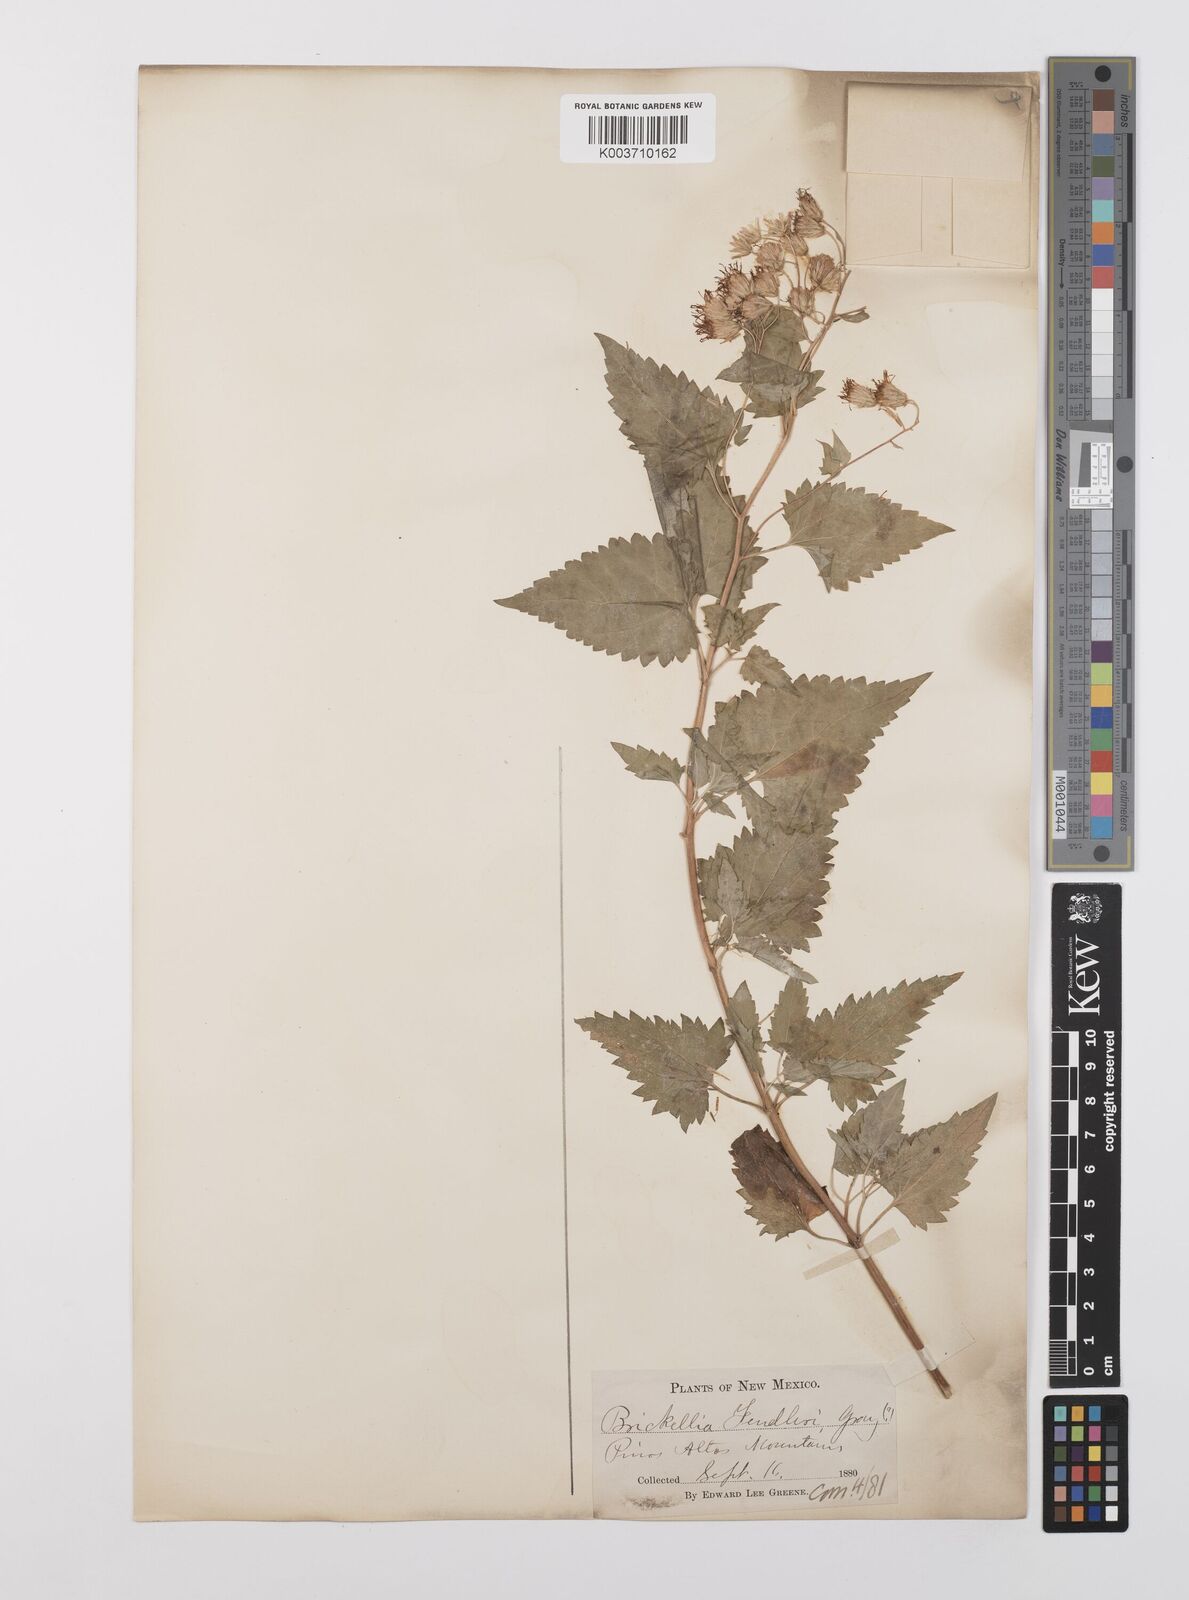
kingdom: Plantae
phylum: Tracheophyta
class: Magnoliopsida
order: Asterales
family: Asteraceae
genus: Brickelliastrum
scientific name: Brickelliastrum fendleri
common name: Fendler's-brickellbush
